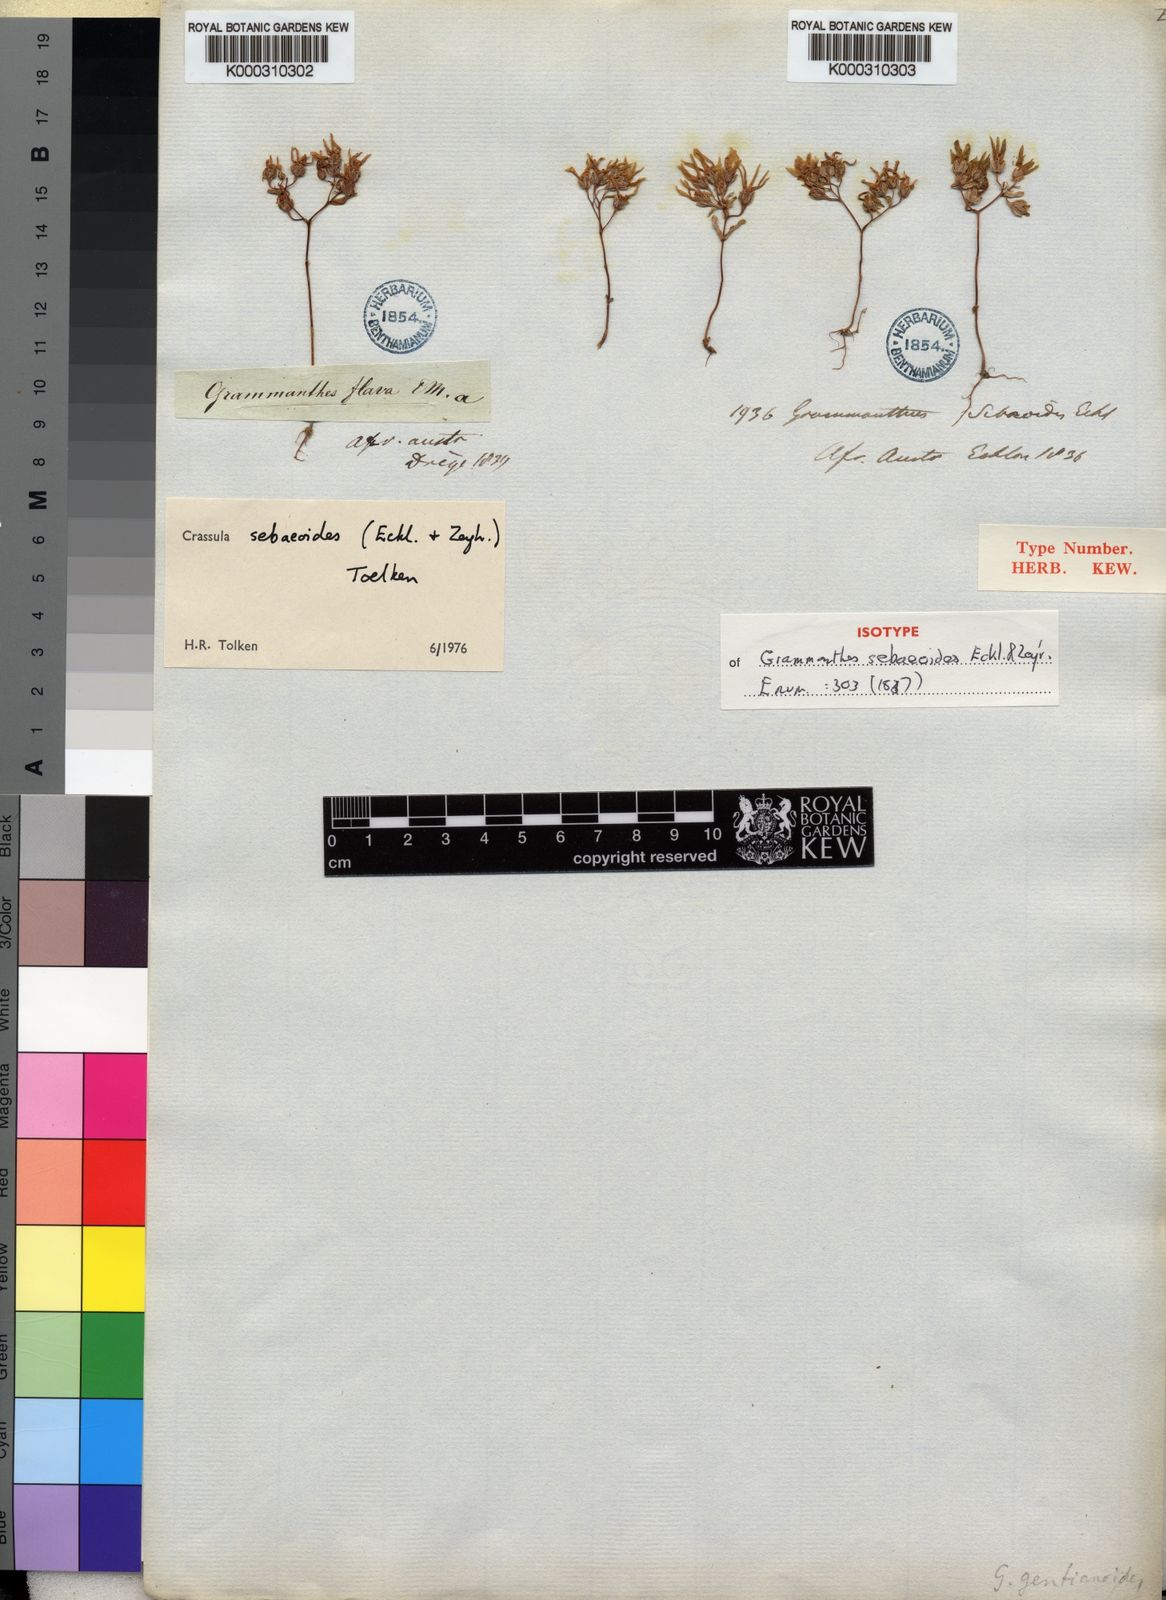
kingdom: Plantae
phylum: Tracheophyta
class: Magnoliopsida
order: Saxifragales
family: Crassulaceae
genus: Crassula
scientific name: Crassula sebaeoides
